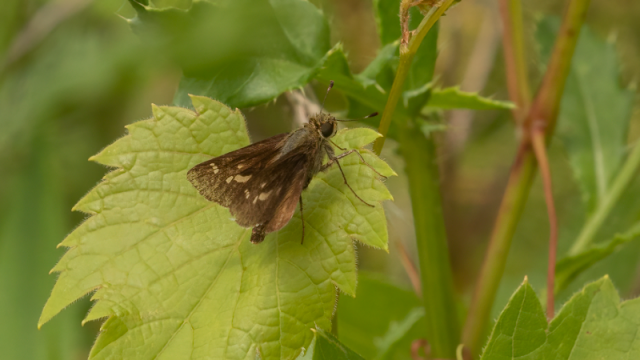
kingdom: Animalia
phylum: Arthropoda
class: Insecta
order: Lepidoptera
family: Hesperiidae
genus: Vernia
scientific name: Vernia verna
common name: Little Glassywing
